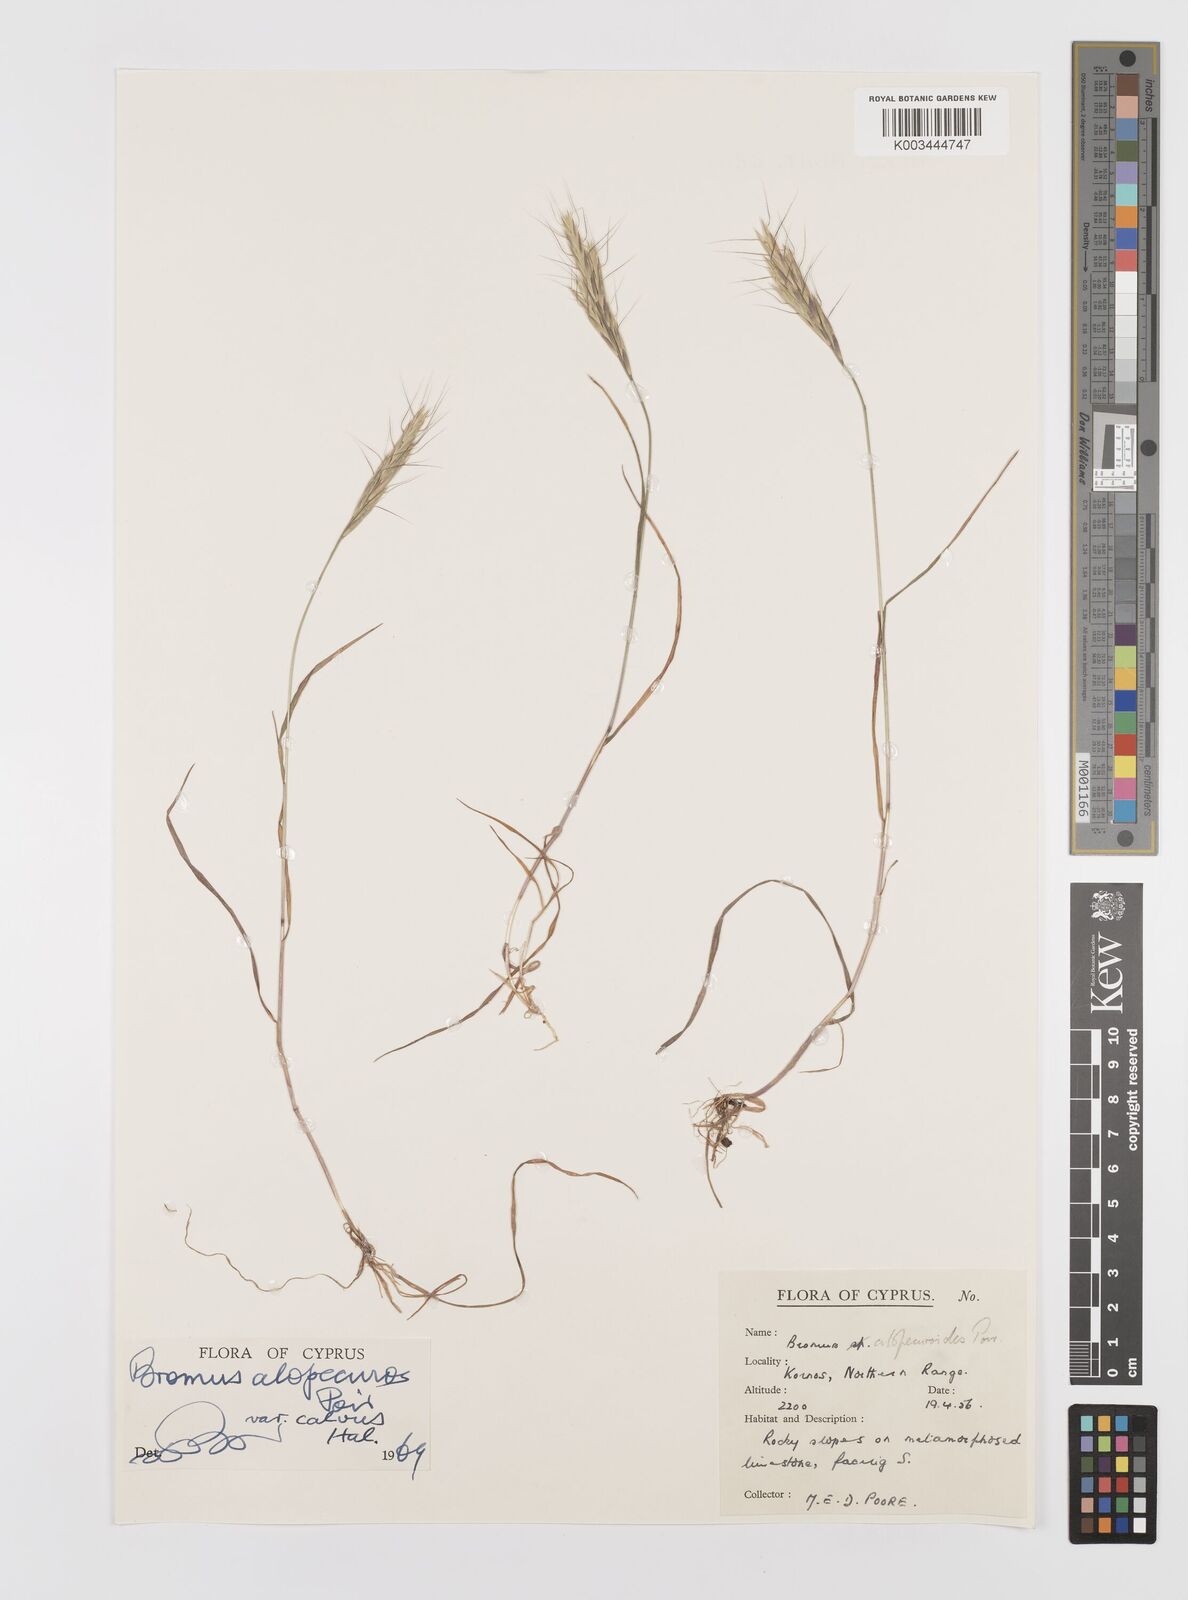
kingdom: Plantae
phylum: Tracheophyta
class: Liliopsida
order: Poales
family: Poaceae
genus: Bromus
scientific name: Bromus alopecuros
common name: Weedy brome
